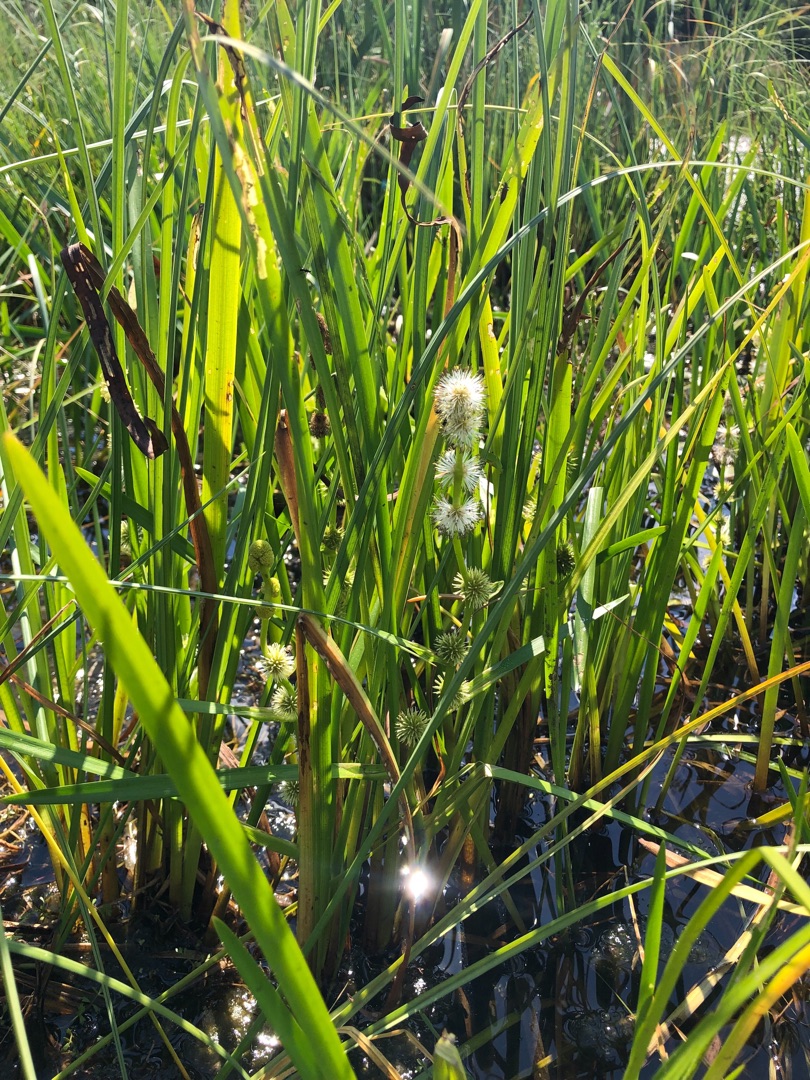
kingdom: Plantae
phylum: Tracheophyta
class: Liliopsida
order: Poales
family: Typhaceae
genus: Sparganium
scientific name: Sparganium emersum
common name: Enkelt pindsvineknop
